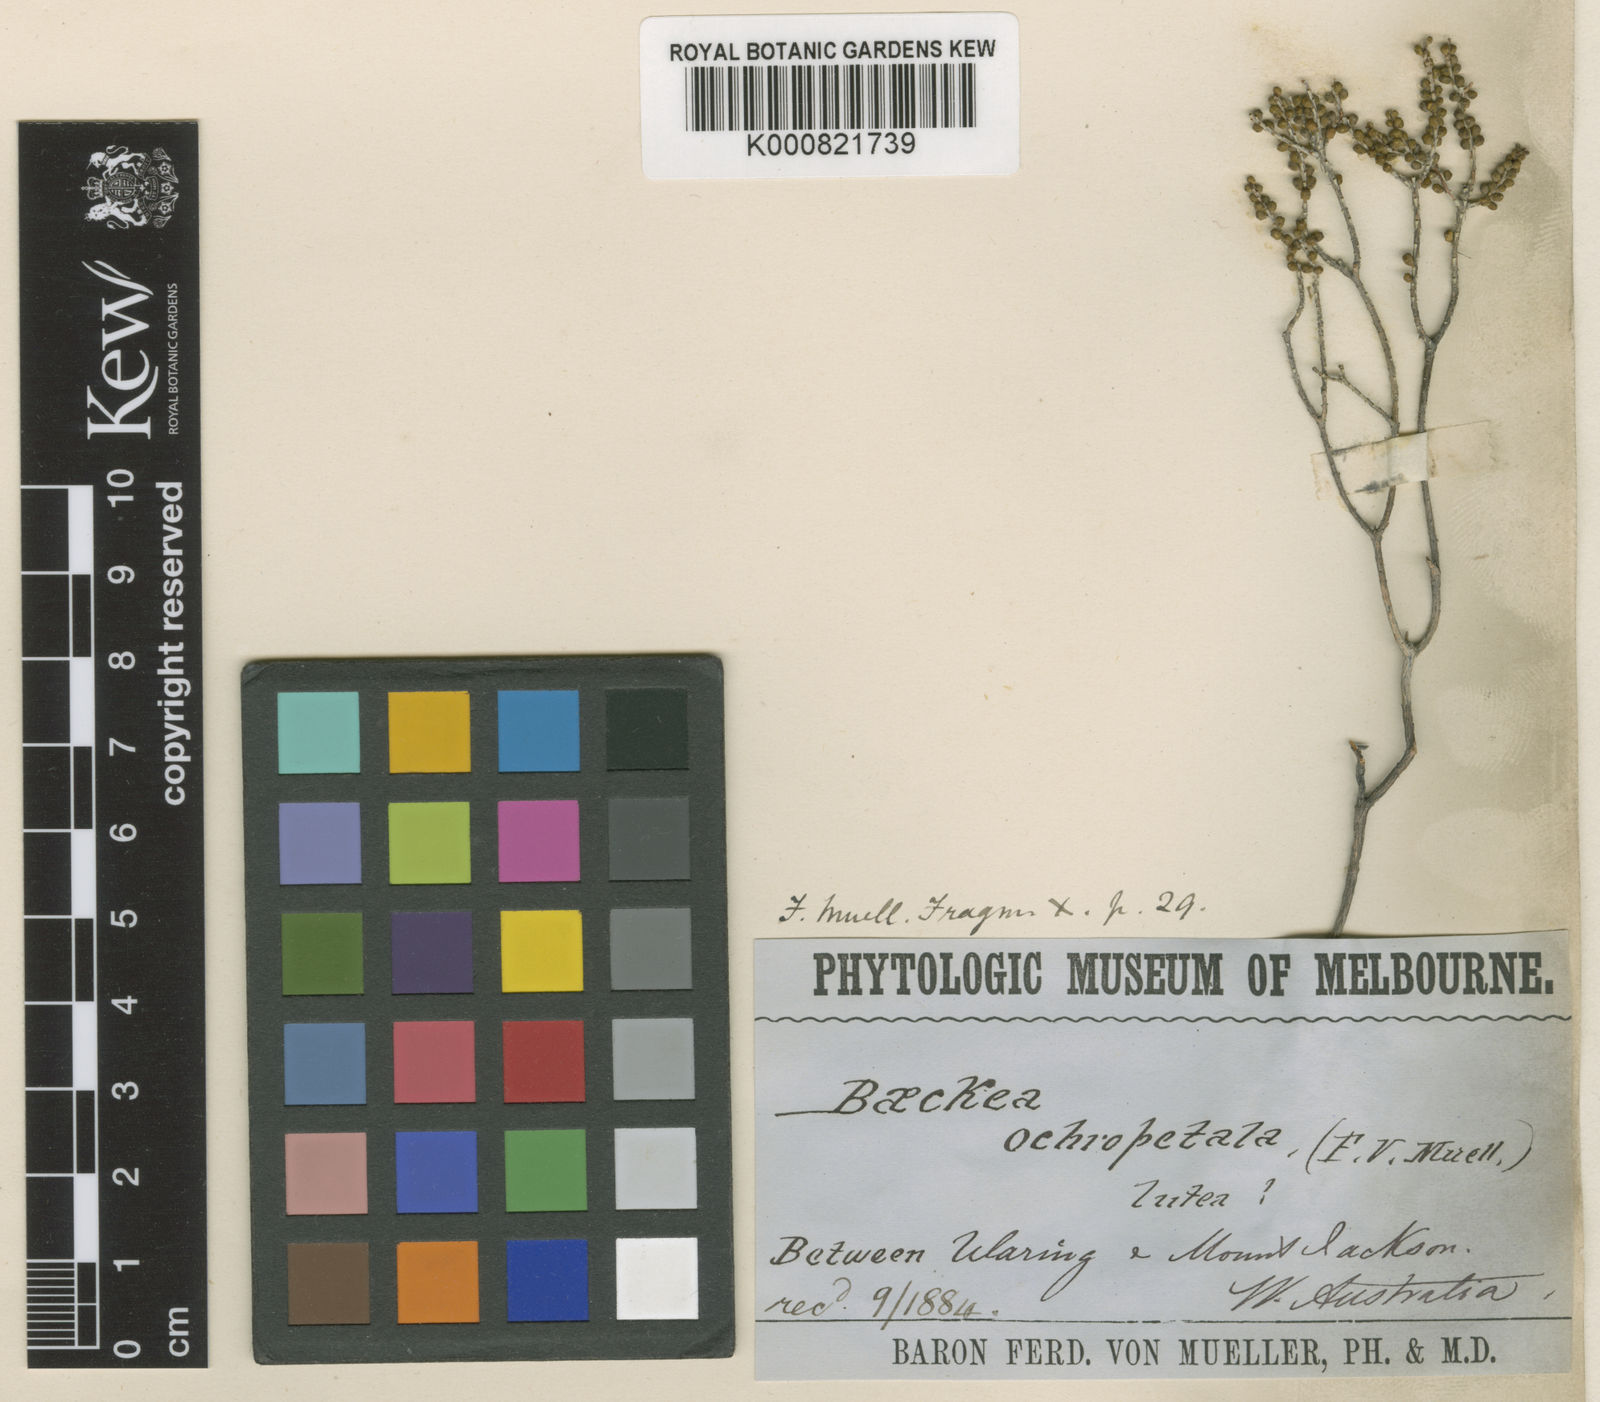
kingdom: Plantae
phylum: Tracheophyta
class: Magnoliopsida
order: Myrtales
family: Myrtaceae
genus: Hysterobaeckea
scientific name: Hysterobaeckea ochropetala
